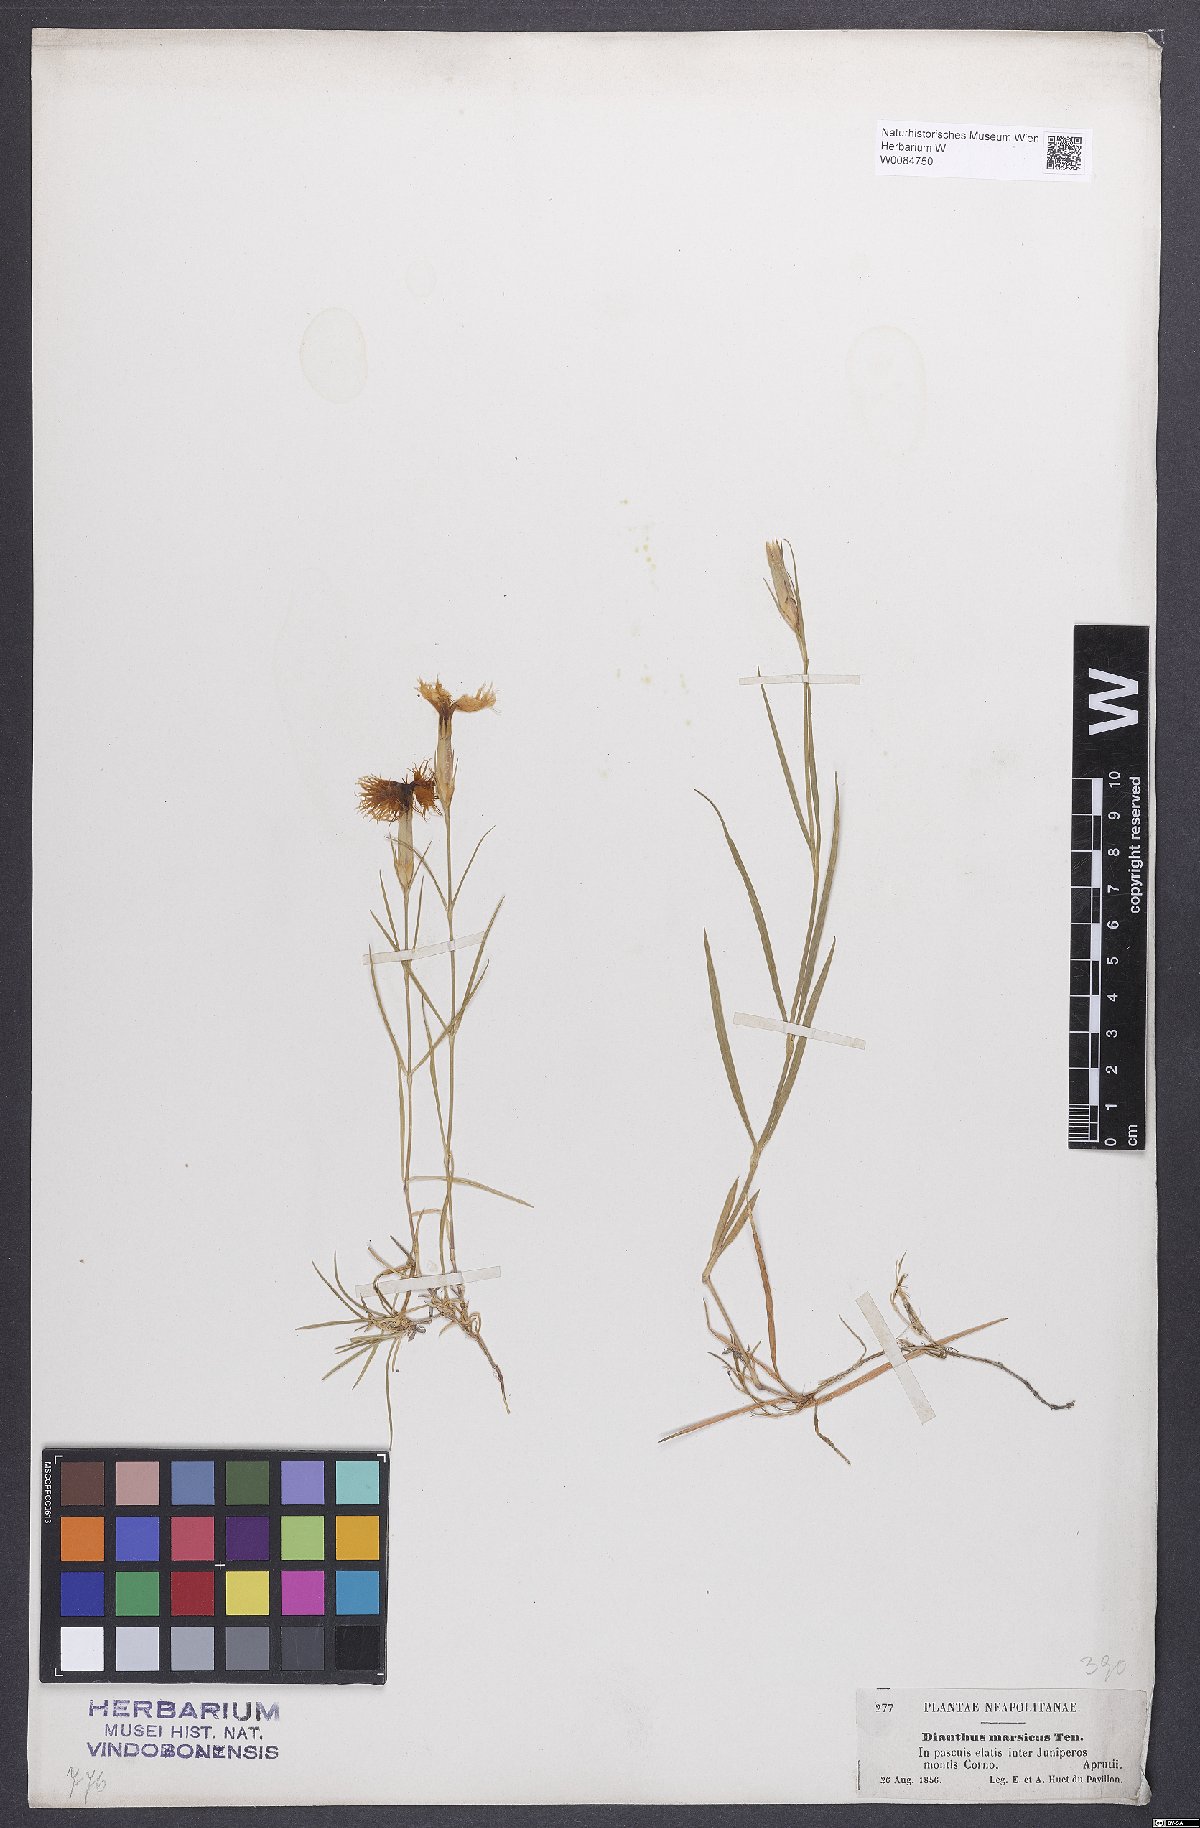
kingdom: Plantae
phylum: Tracheophyta
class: Magnoliopsida
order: Caryophyllales
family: Caryophyllaceae
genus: Dianthus
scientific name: Dianthus hyssopifolius
